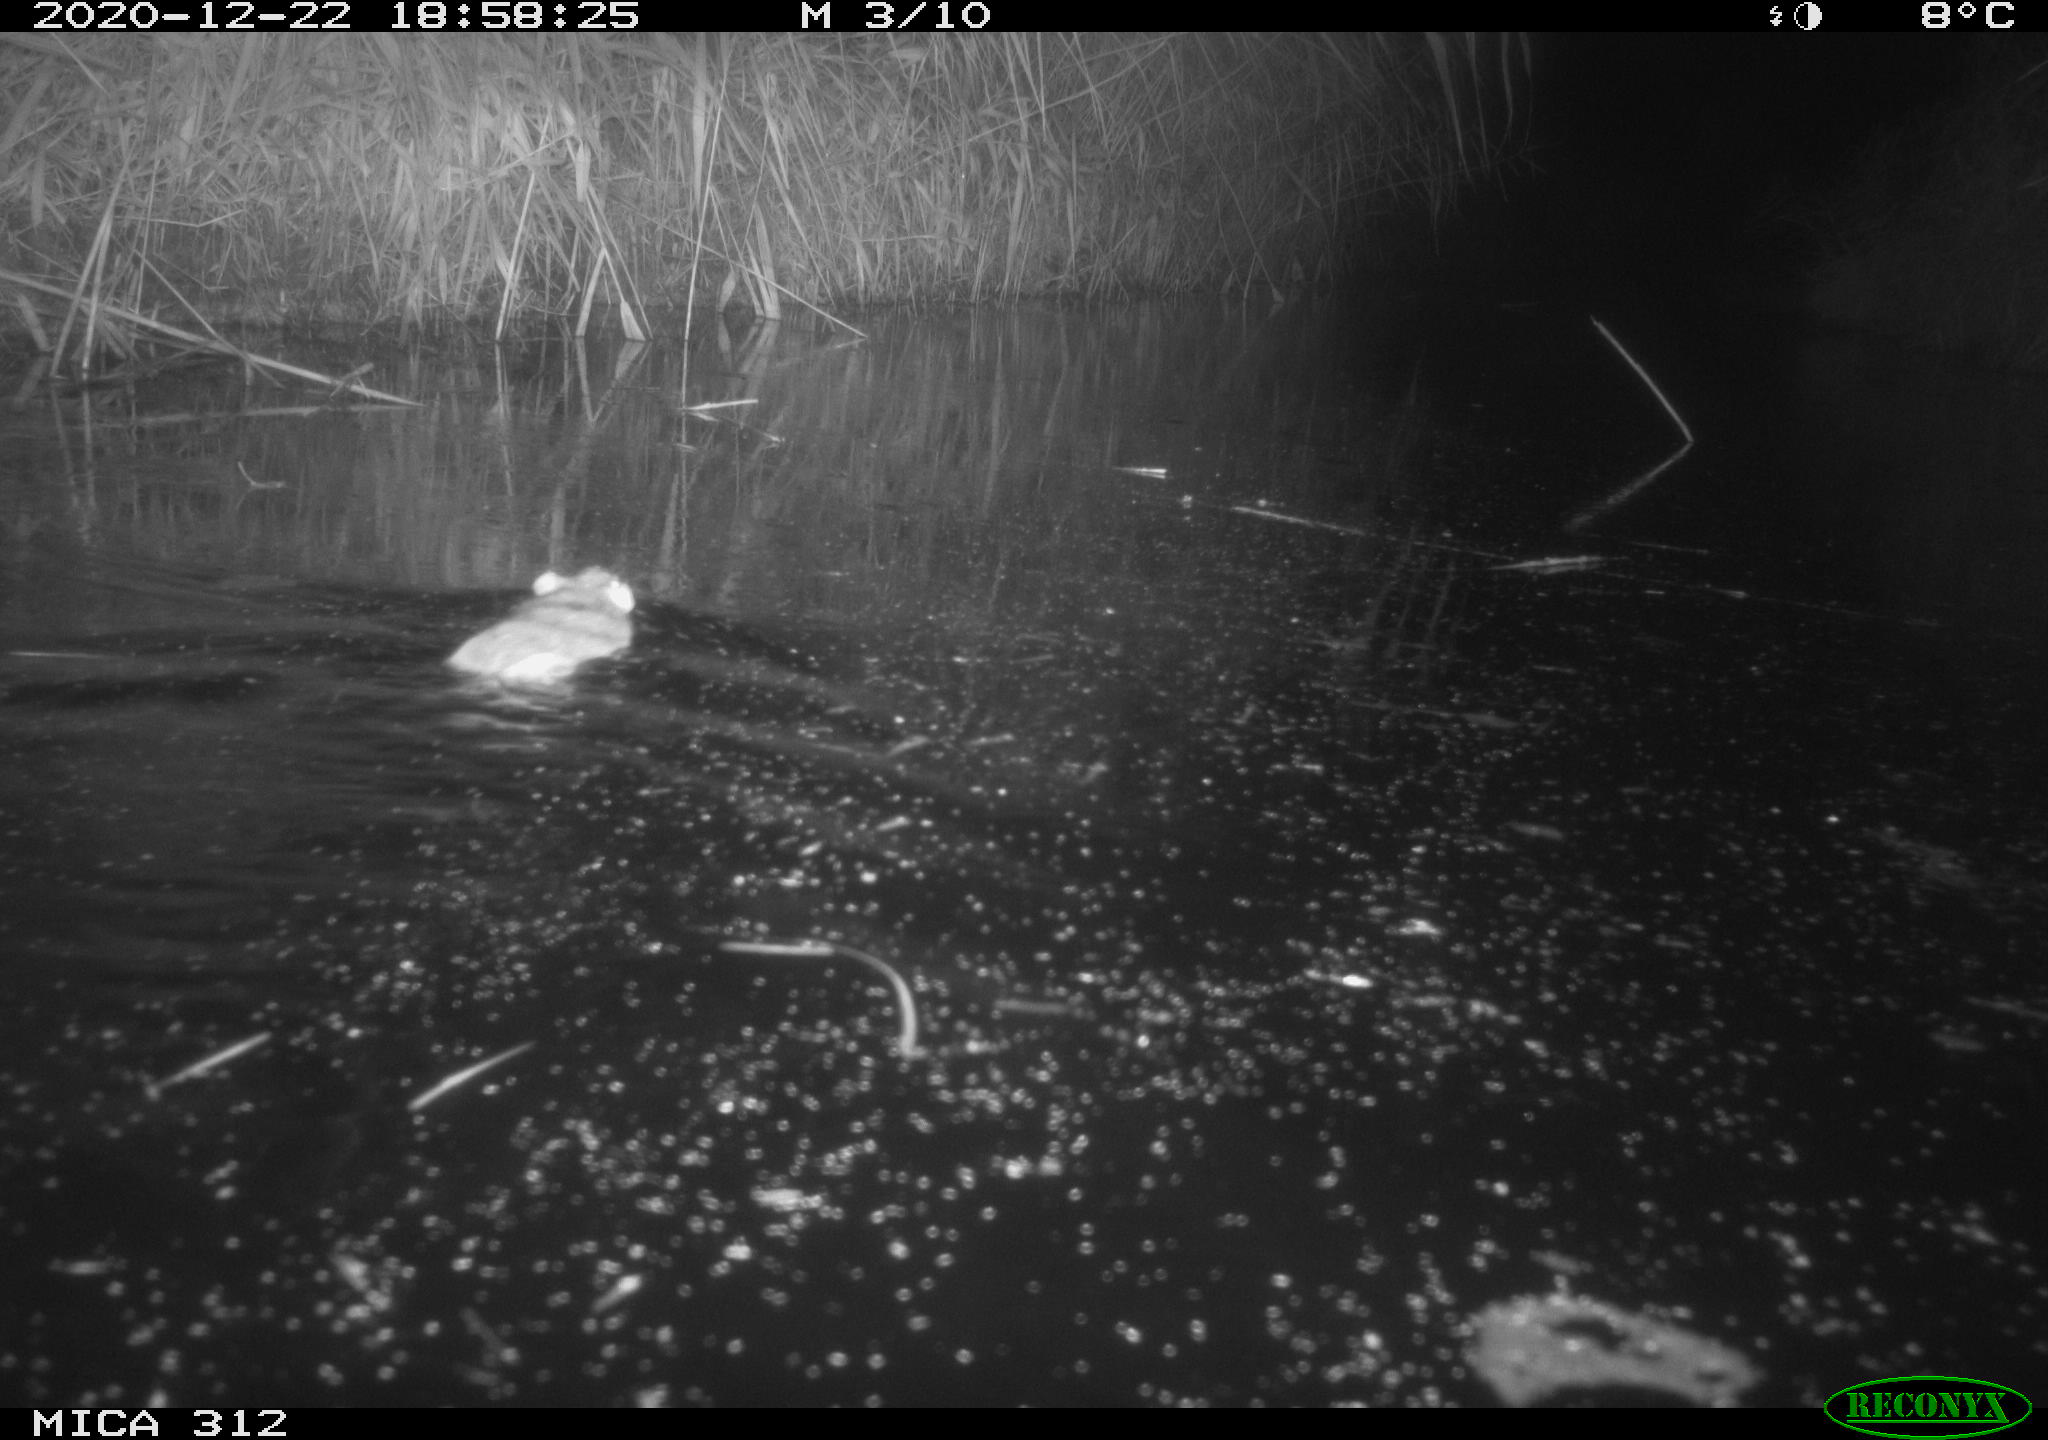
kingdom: Animalia
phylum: Chordata
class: Mammalia
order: Rodentia
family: Muridae
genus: Rattus
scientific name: Rattus norvegicus
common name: Brown rat
